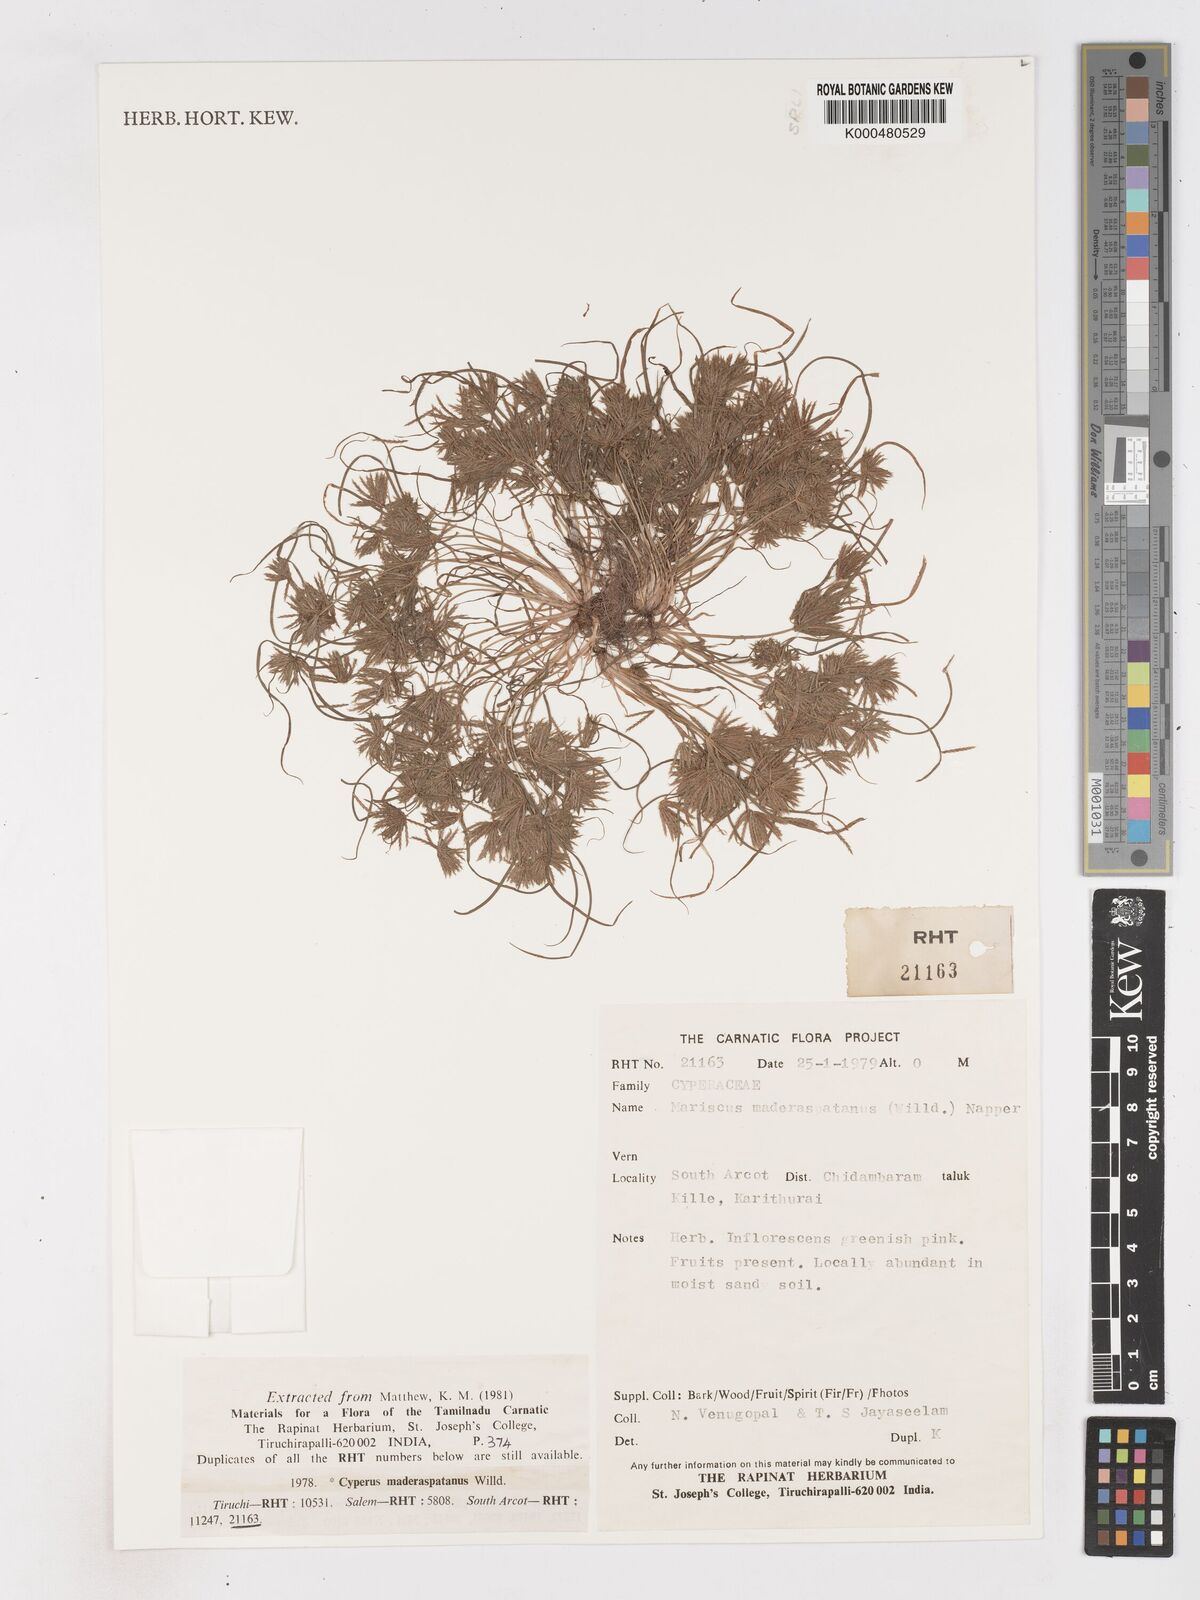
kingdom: Plantae
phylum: Tracheophyta
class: Liliopsida
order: Poales
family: Cyperaceae
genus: Cyperus
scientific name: Cyperus maderaspatanus
